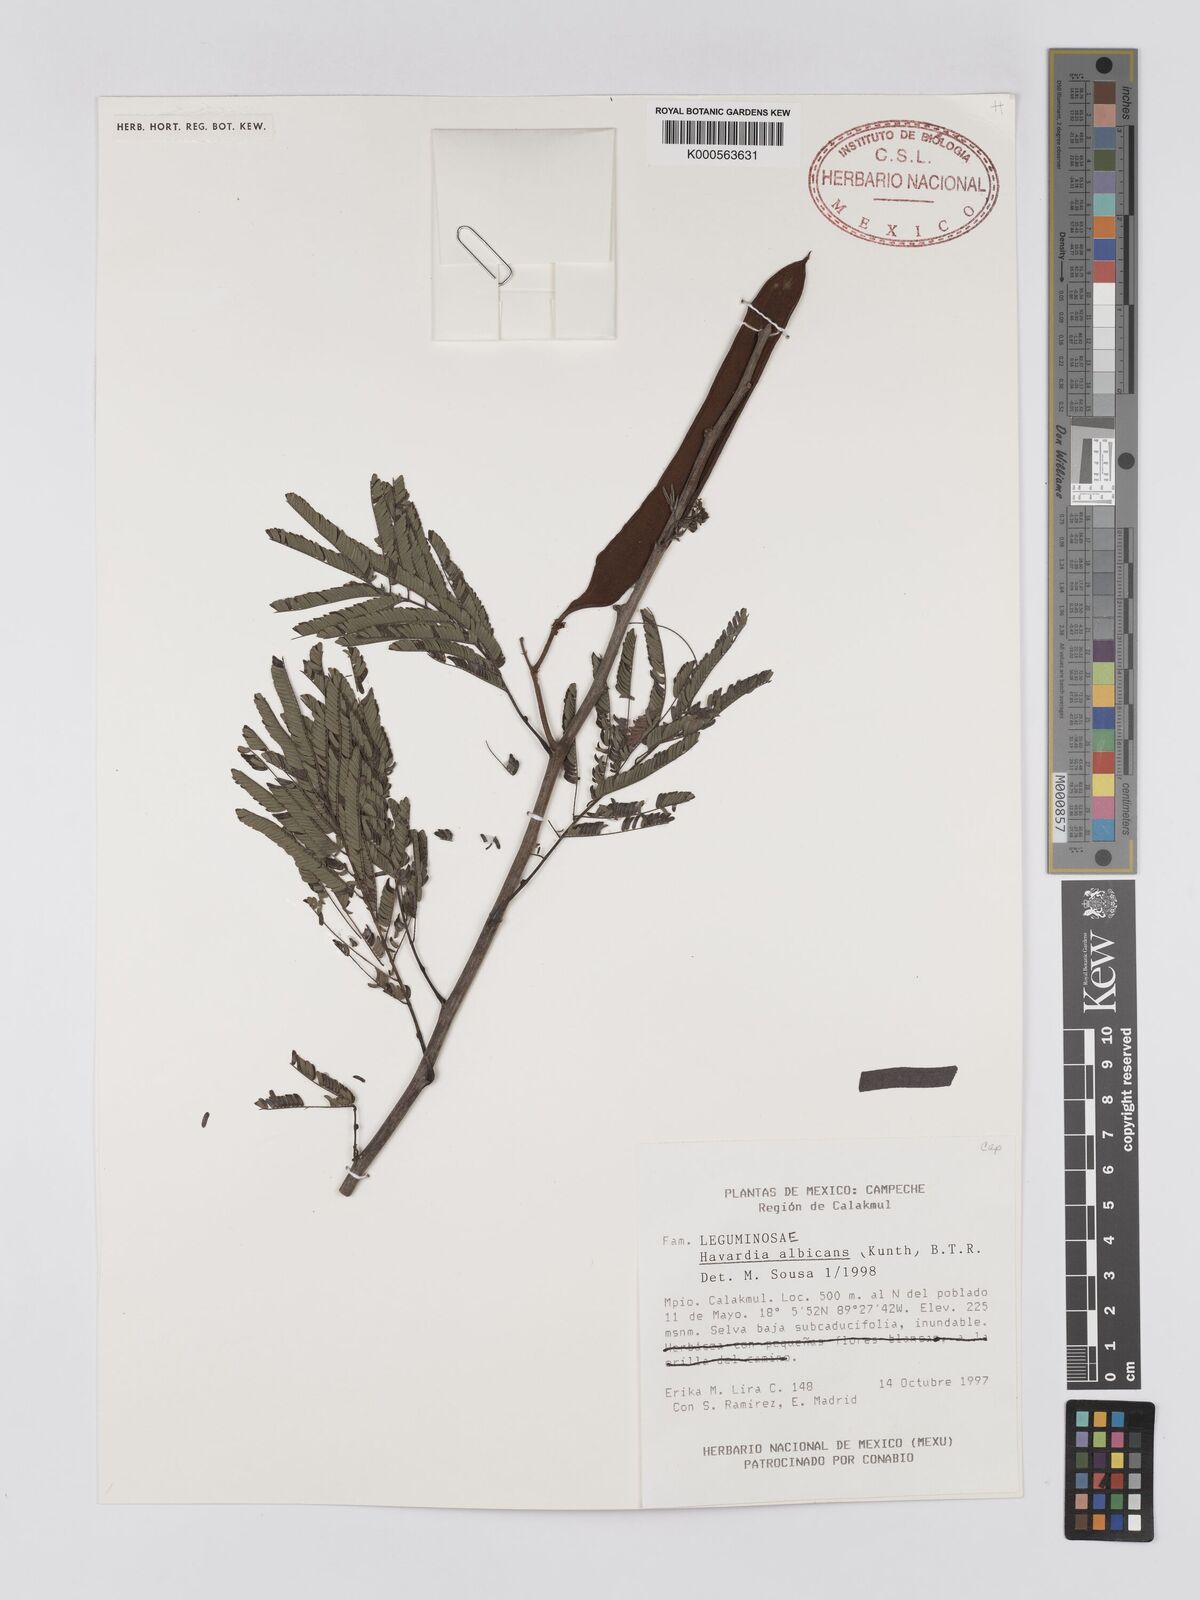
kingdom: Plantae
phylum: Tracheophyta
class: Magnoliopsida
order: Fabales
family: Fabaceae
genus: Havardia
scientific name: Havardia pallens
